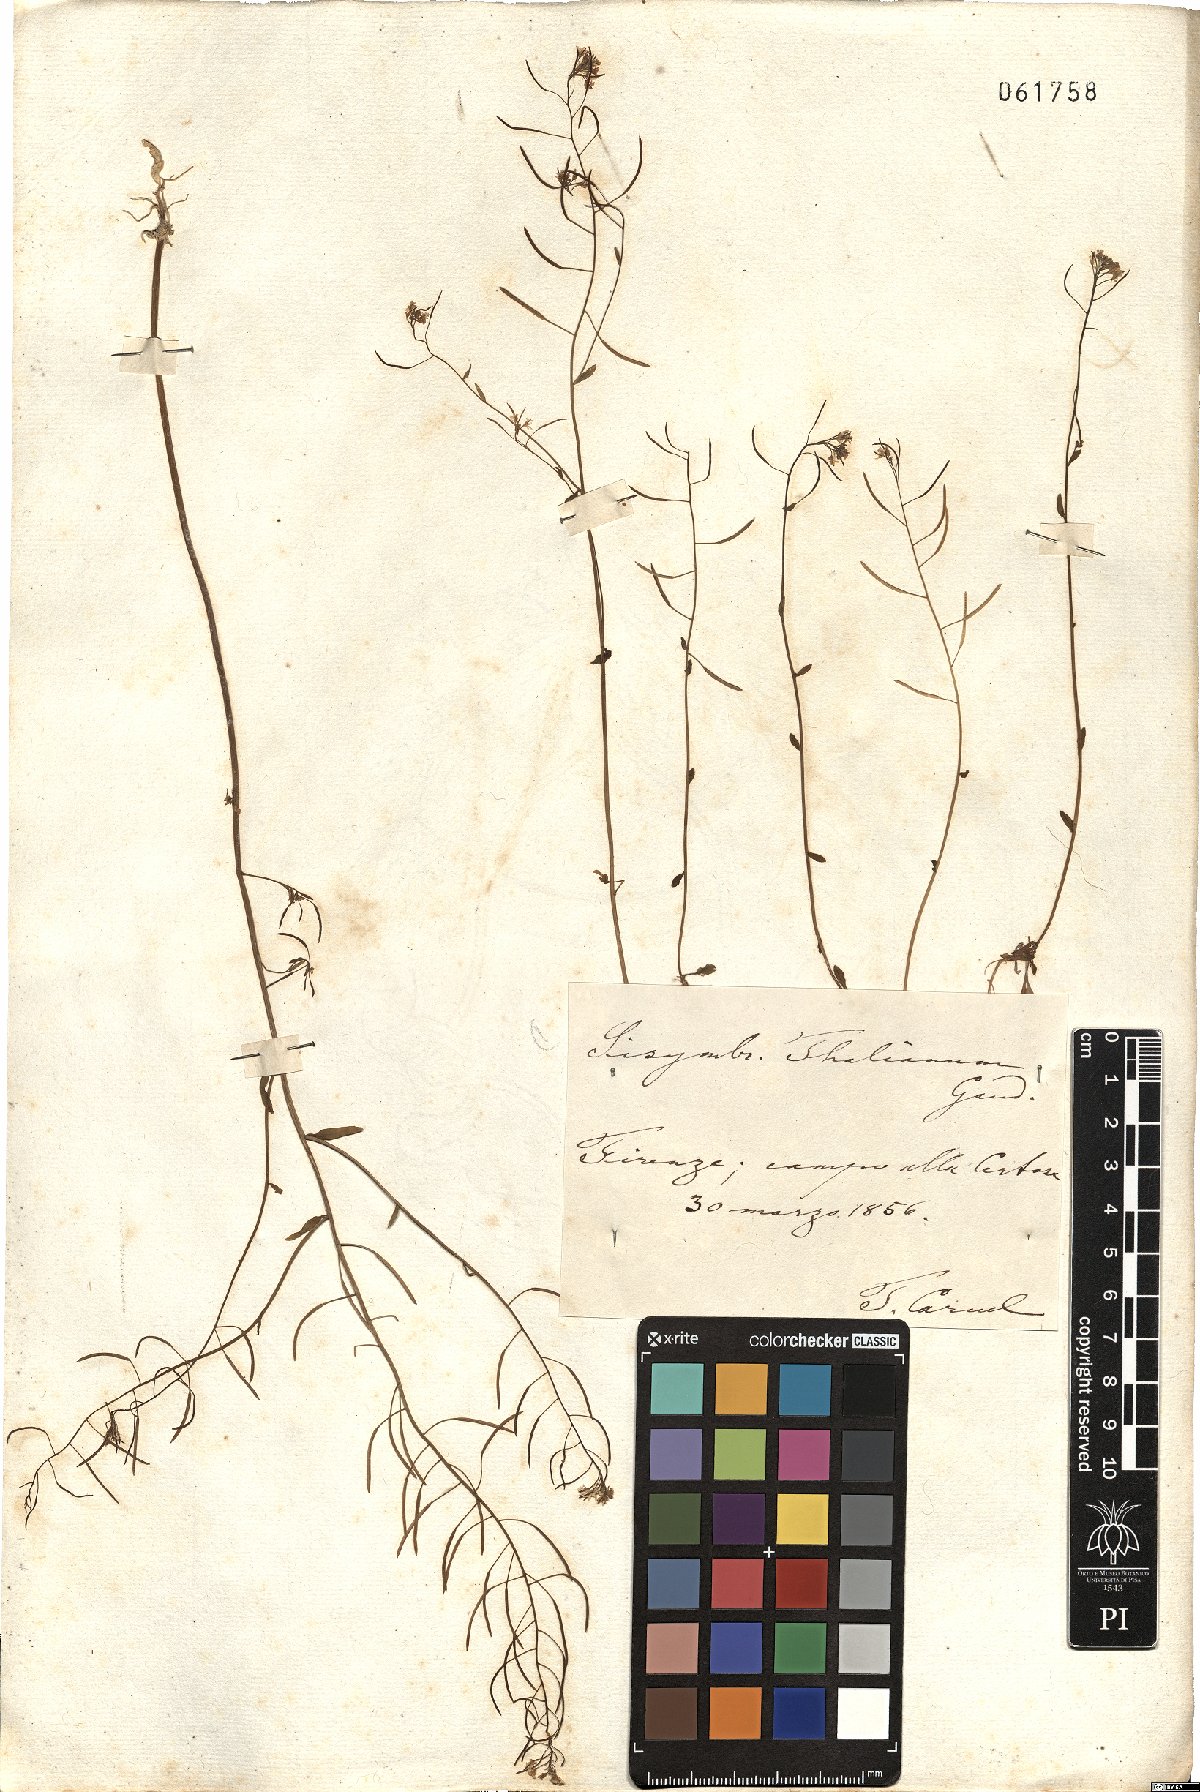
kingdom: Plantae
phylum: Tracheophyta
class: Magnoliopsida
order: Brassicales
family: Brassicaceae
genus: Arabidopsis
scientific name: Arabidopsis thaliana
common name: Thale cress
